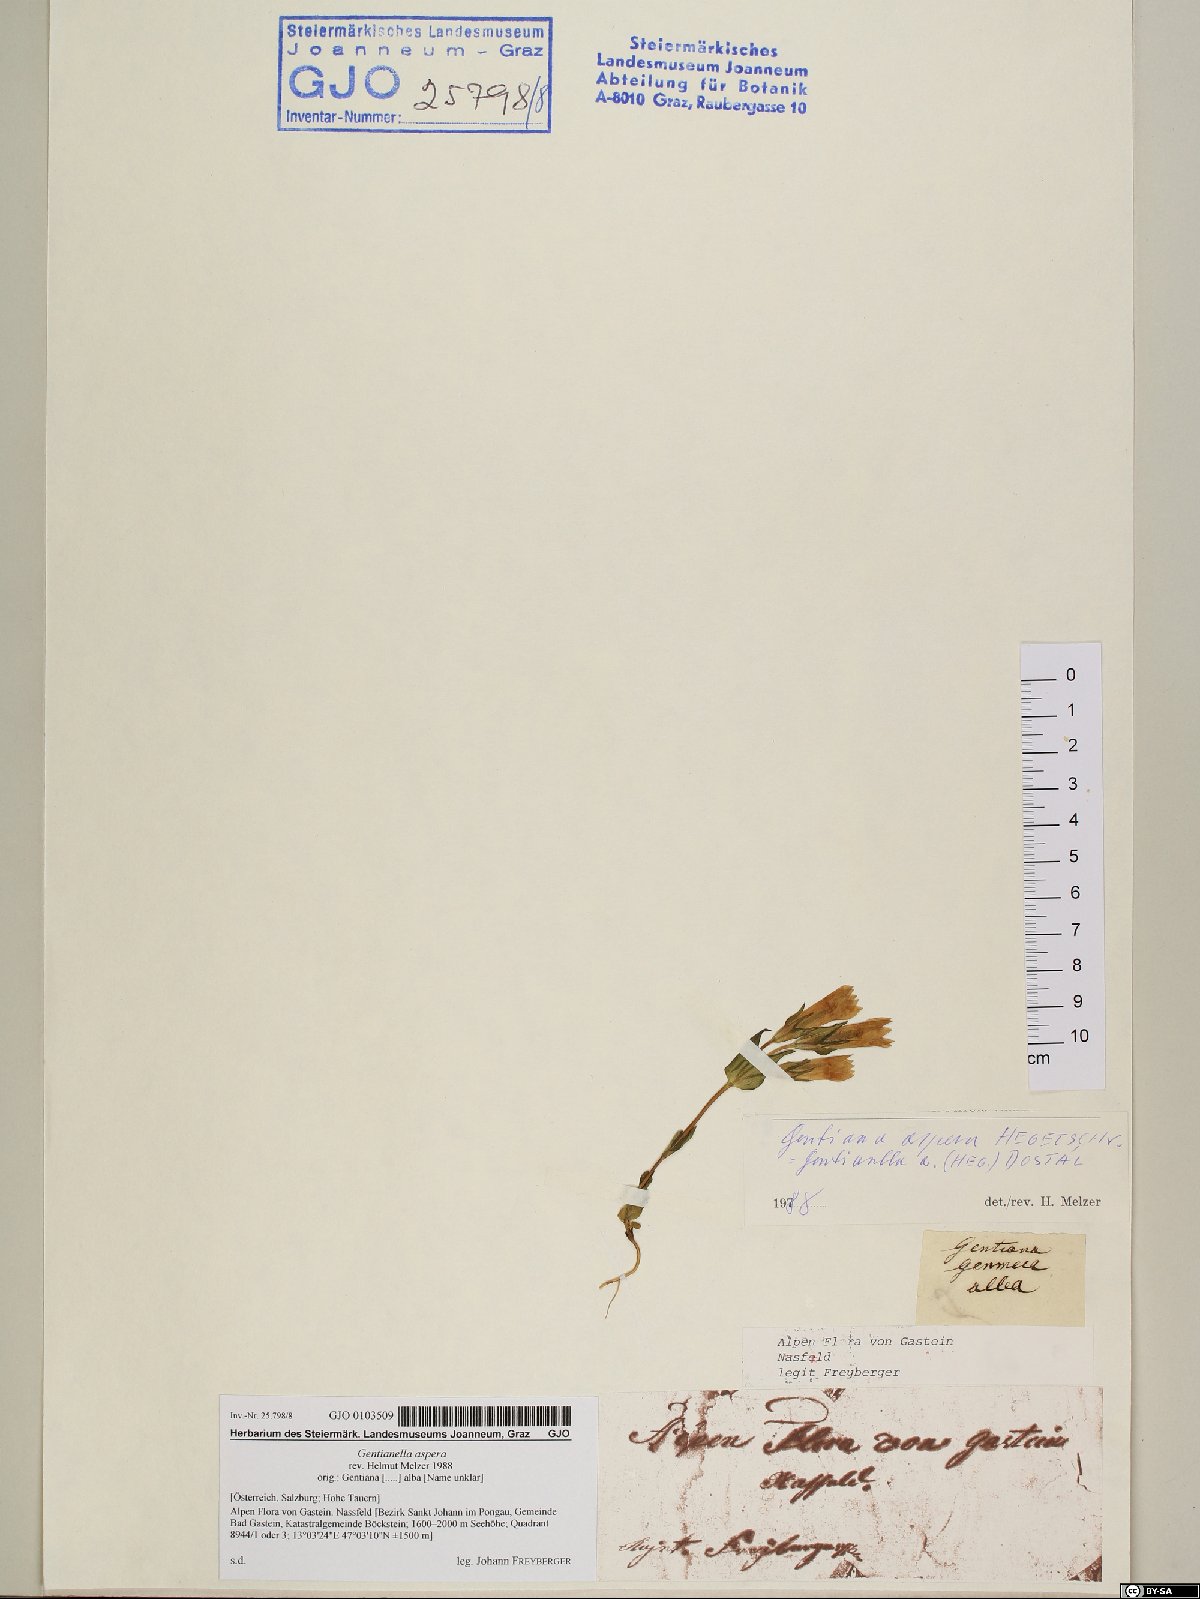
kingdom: Plantae
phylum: Tracheophyta
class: Magnoliopsida
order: Gentianales
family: Gentianaceae
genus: Gentianella
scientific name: Gentianella obtusifolia
